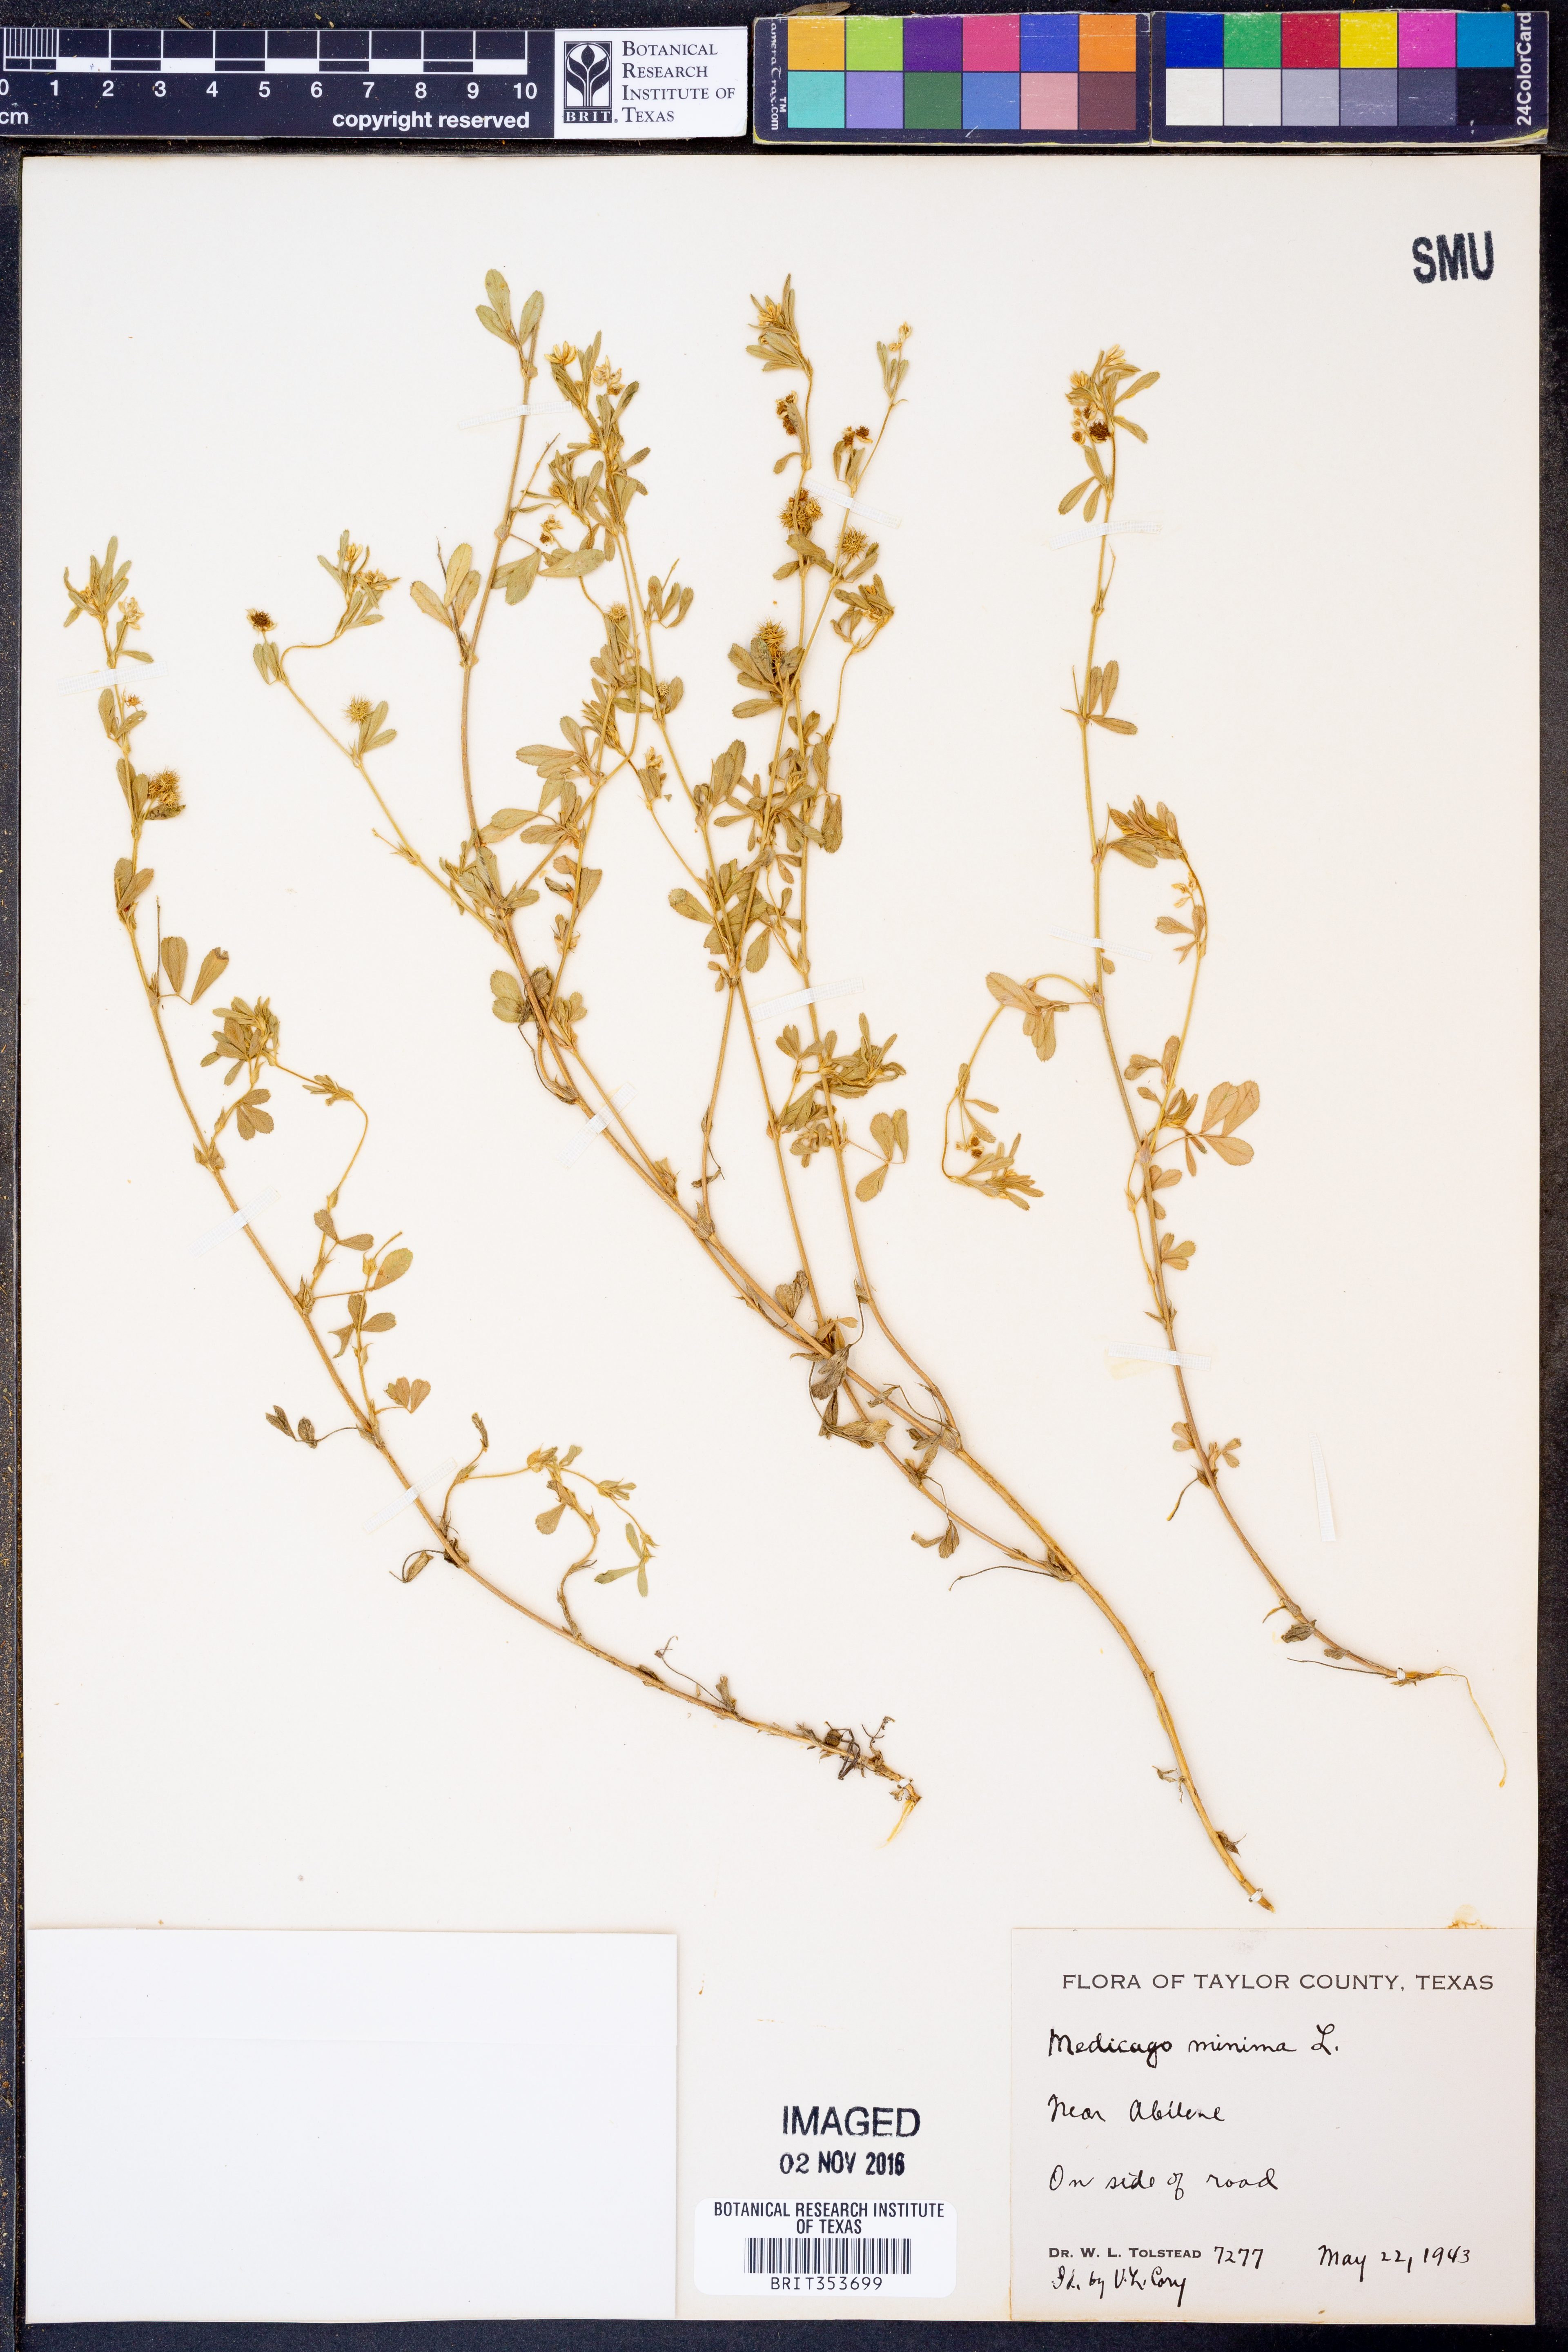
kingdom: Plantae
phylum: Tracheophyta
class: Magnoliopsida
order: Fabales
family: Fabaceae
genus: Medicago
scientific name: Medicago minima
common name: Little bur-clover
